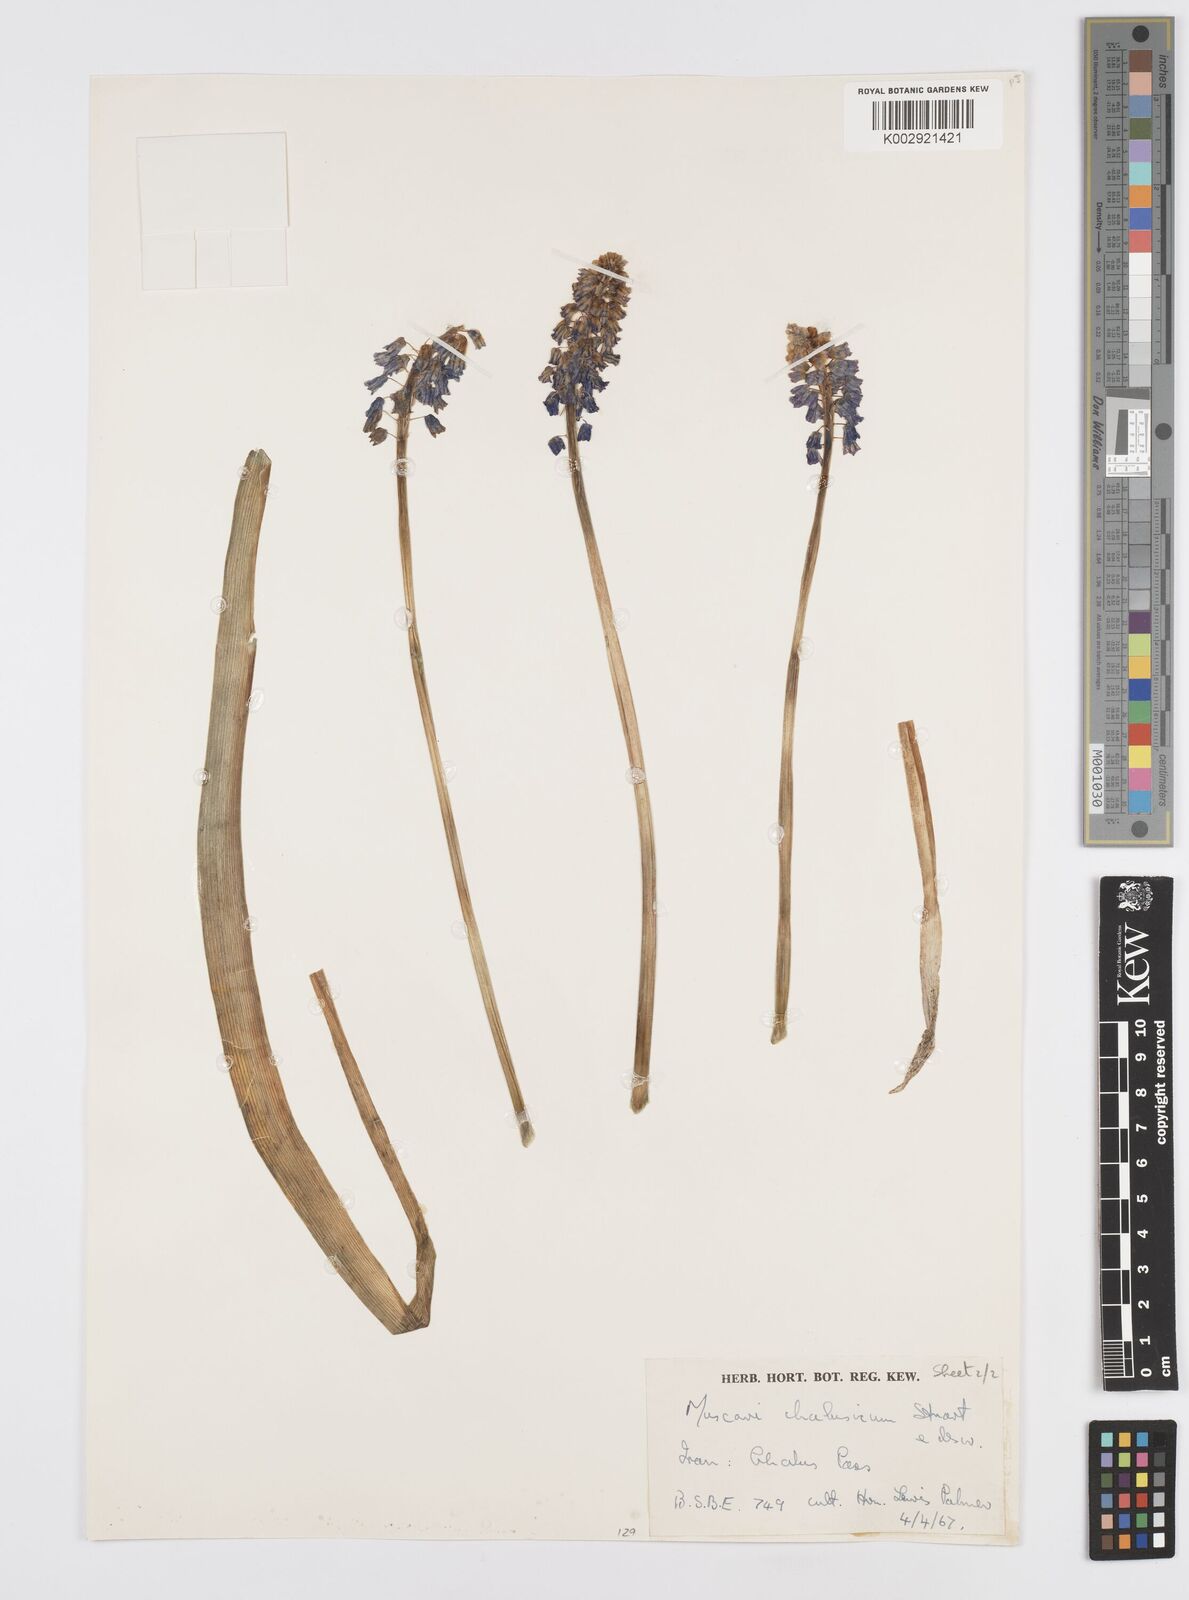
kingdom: Plantae
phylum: Tracheophyta
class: Liliopsida
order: Asparagales
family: Asparagaceae
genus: Muscari
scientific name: Muscari chalusicum
